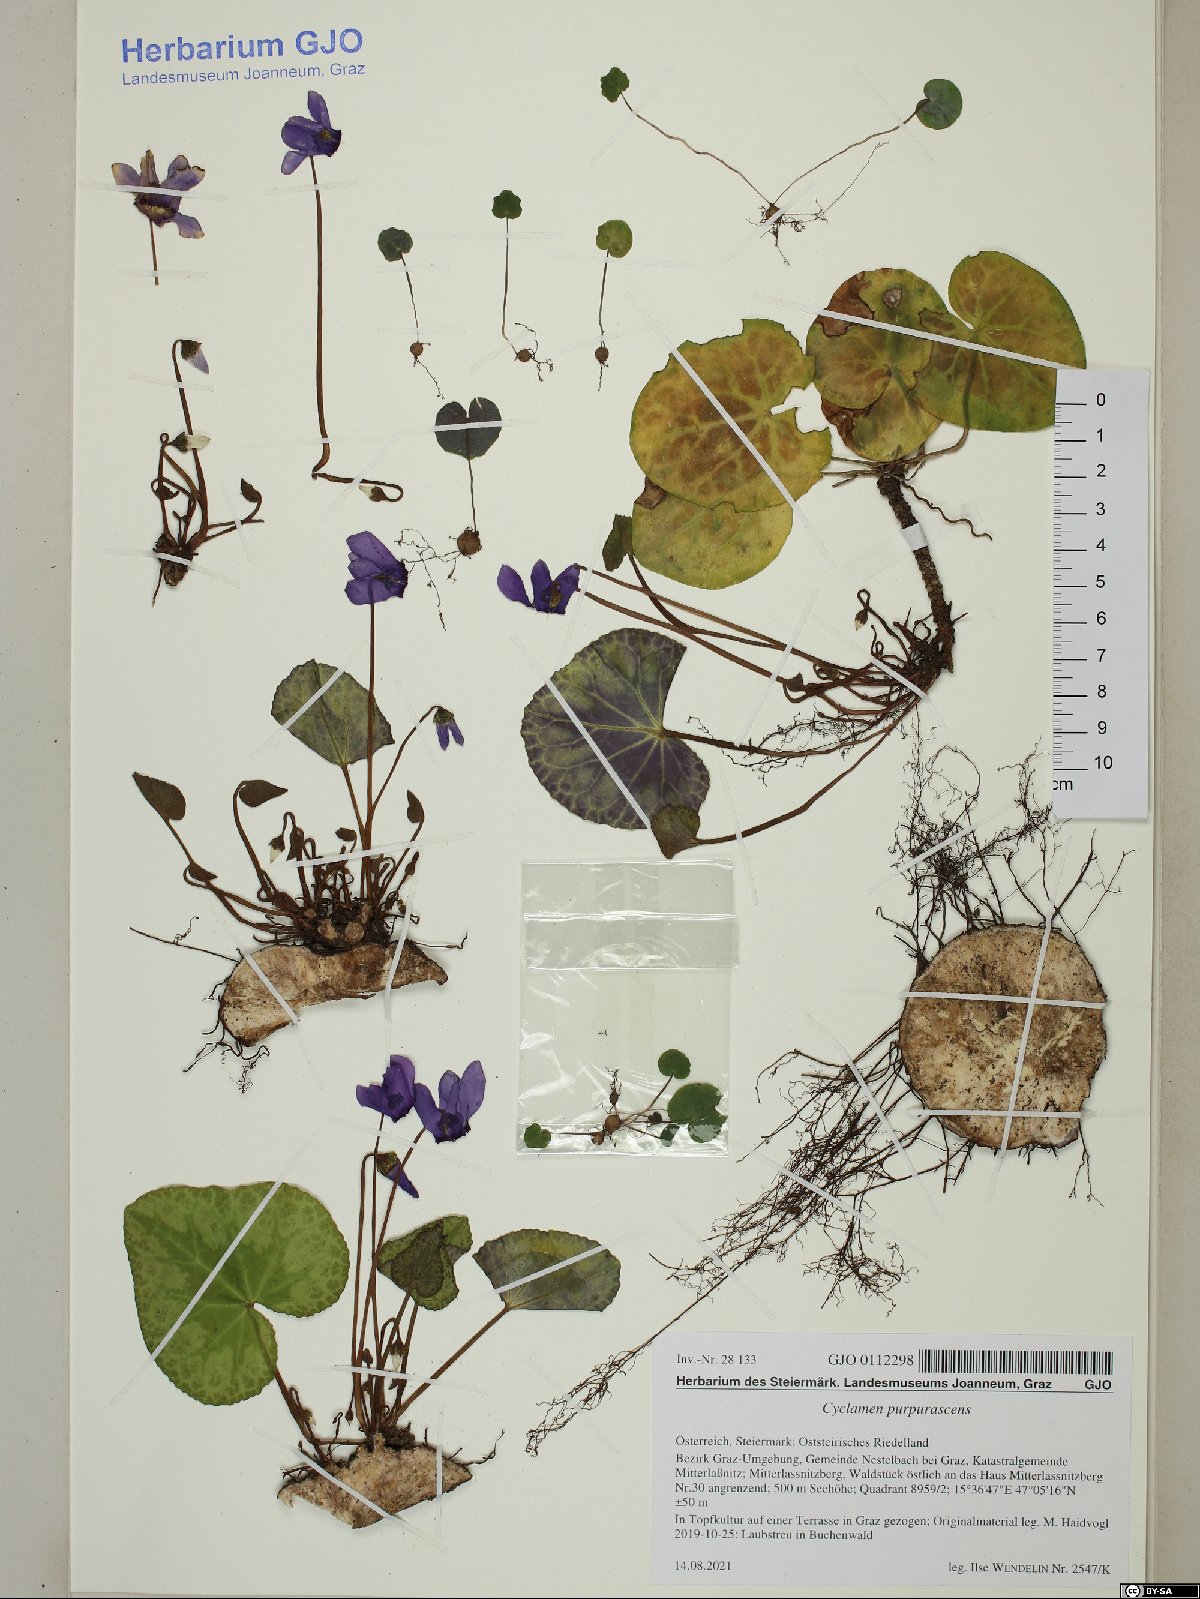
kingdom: Plantae
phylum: Tracheophyta
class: Magnoliopsida
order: Ericales
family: Primulaceae
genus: Cyclamen
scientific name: Cyclamen purpurascens
